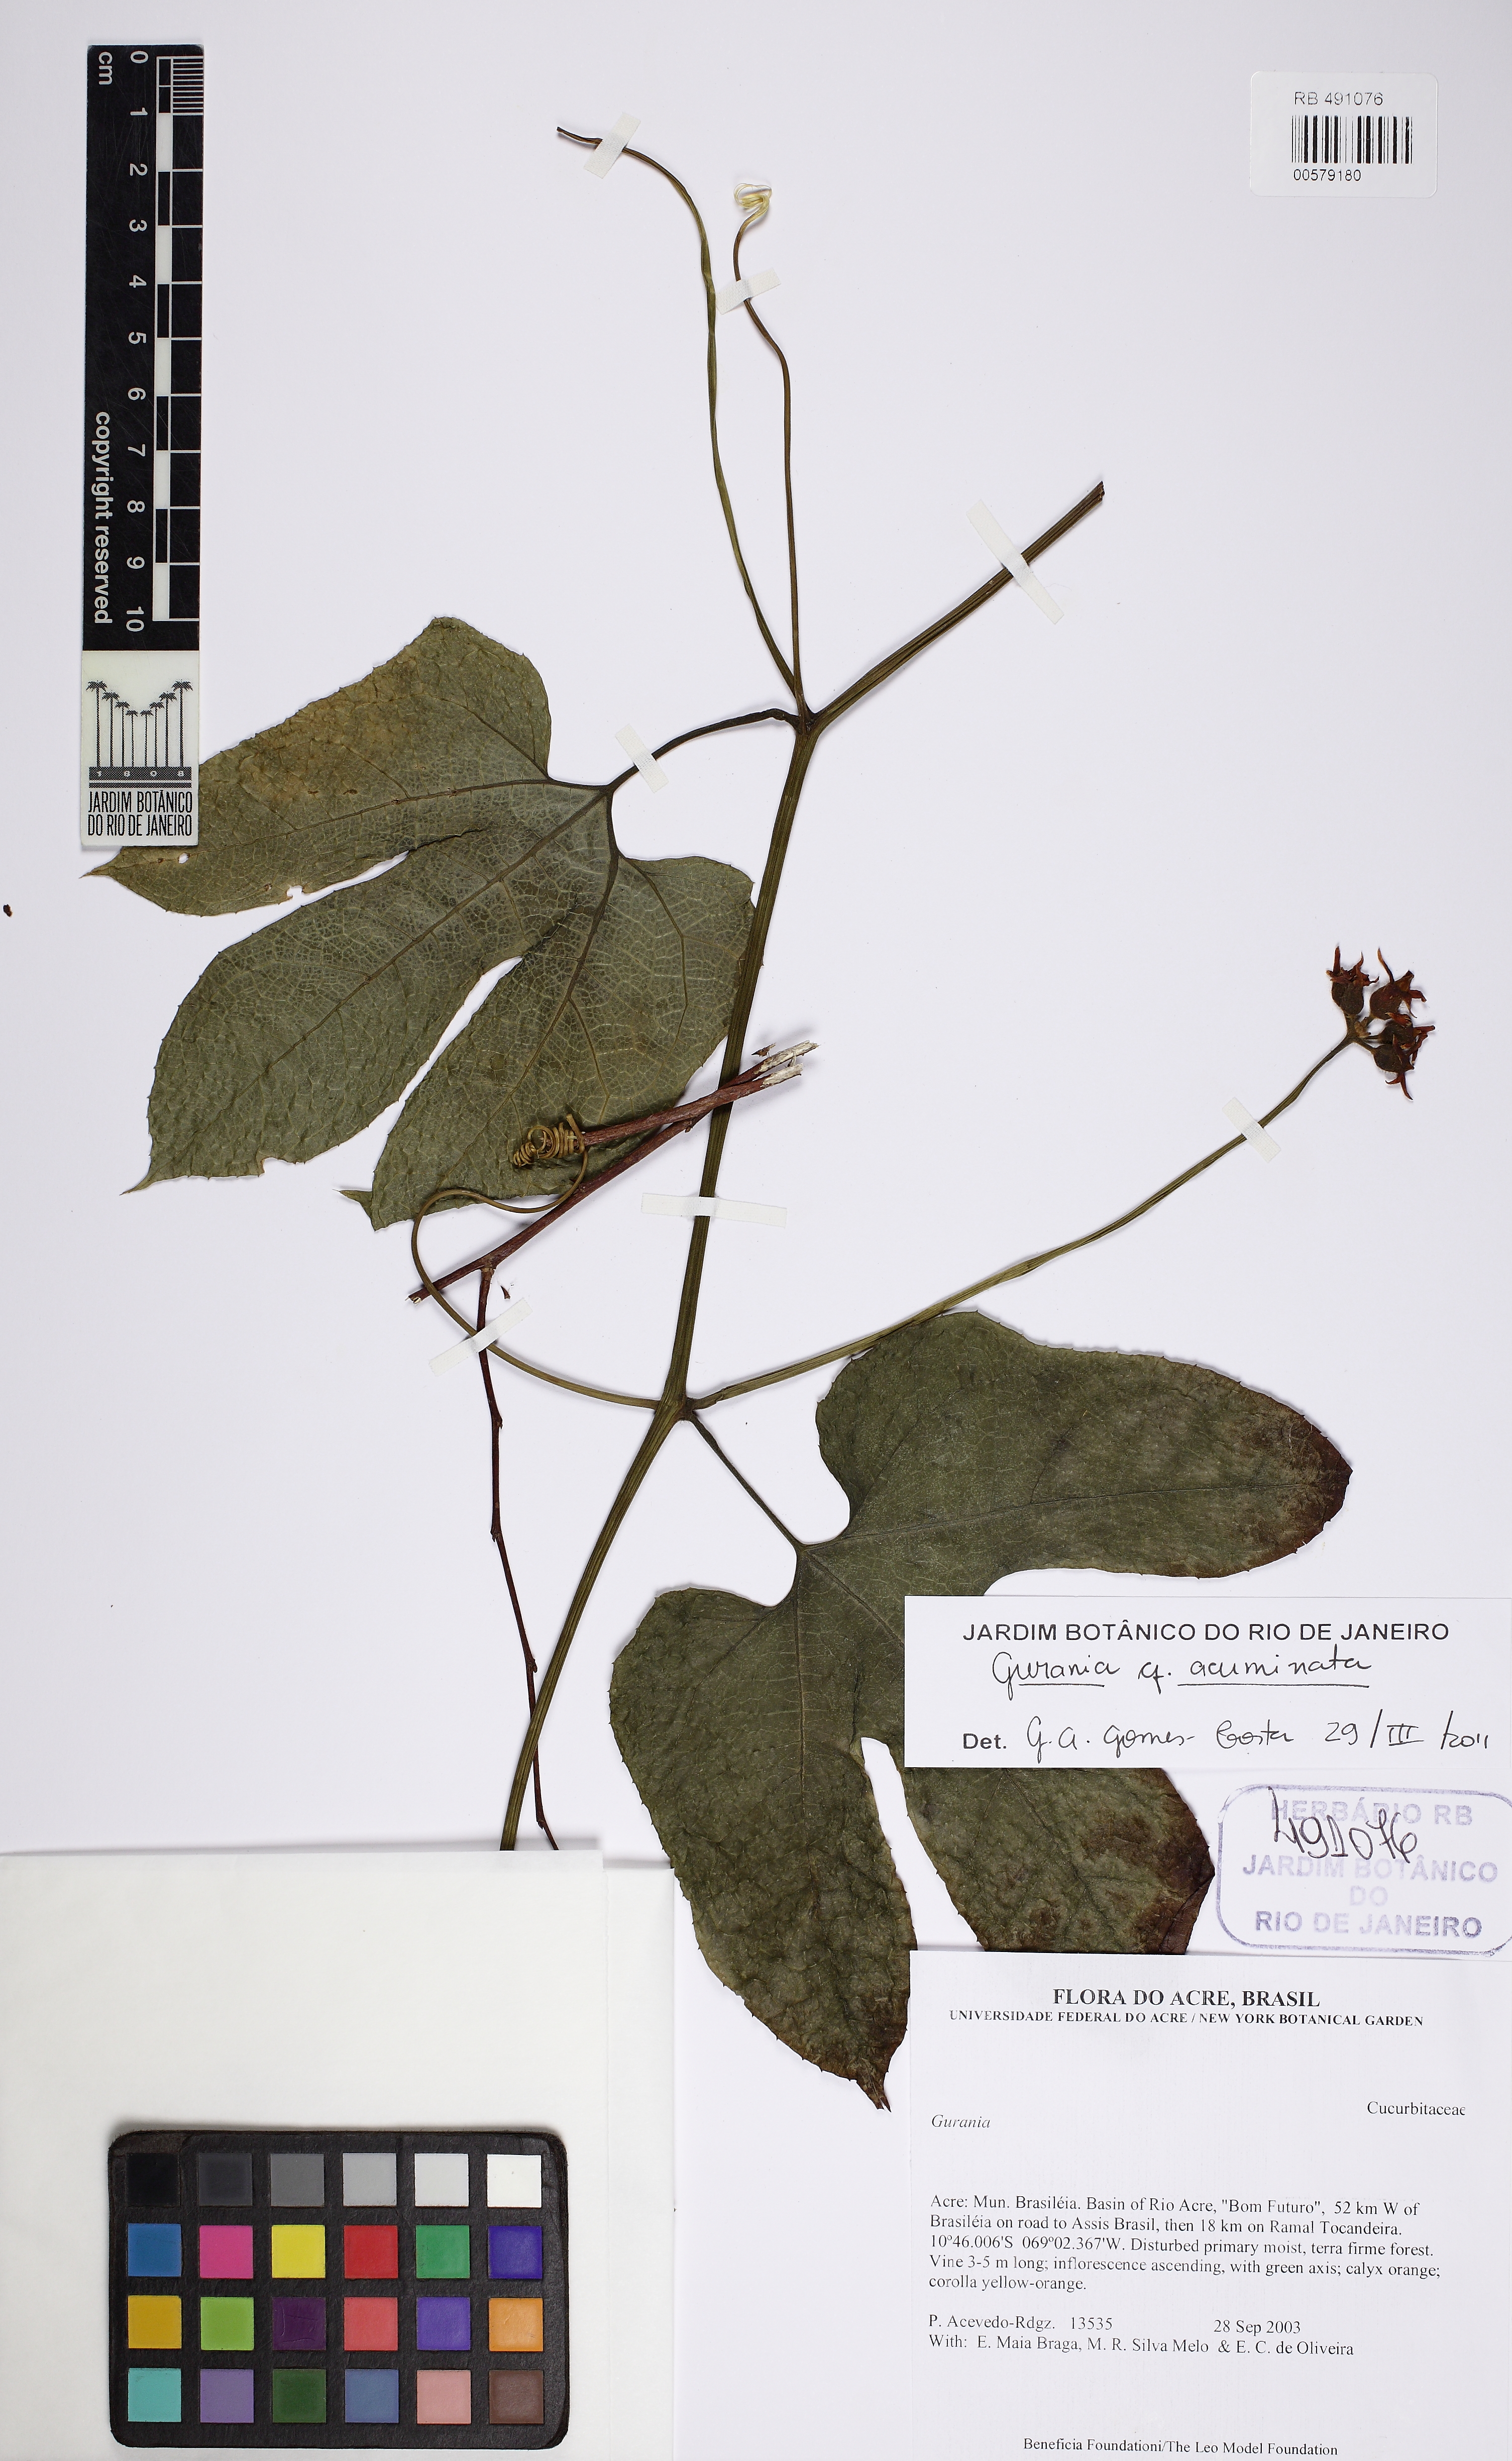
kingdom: Plantae
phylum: Tracheophyta
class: Magnoliopsida
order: Cucurbitales
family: Cucurbitaceae
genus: Gurania
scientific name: Gurania acuminata
